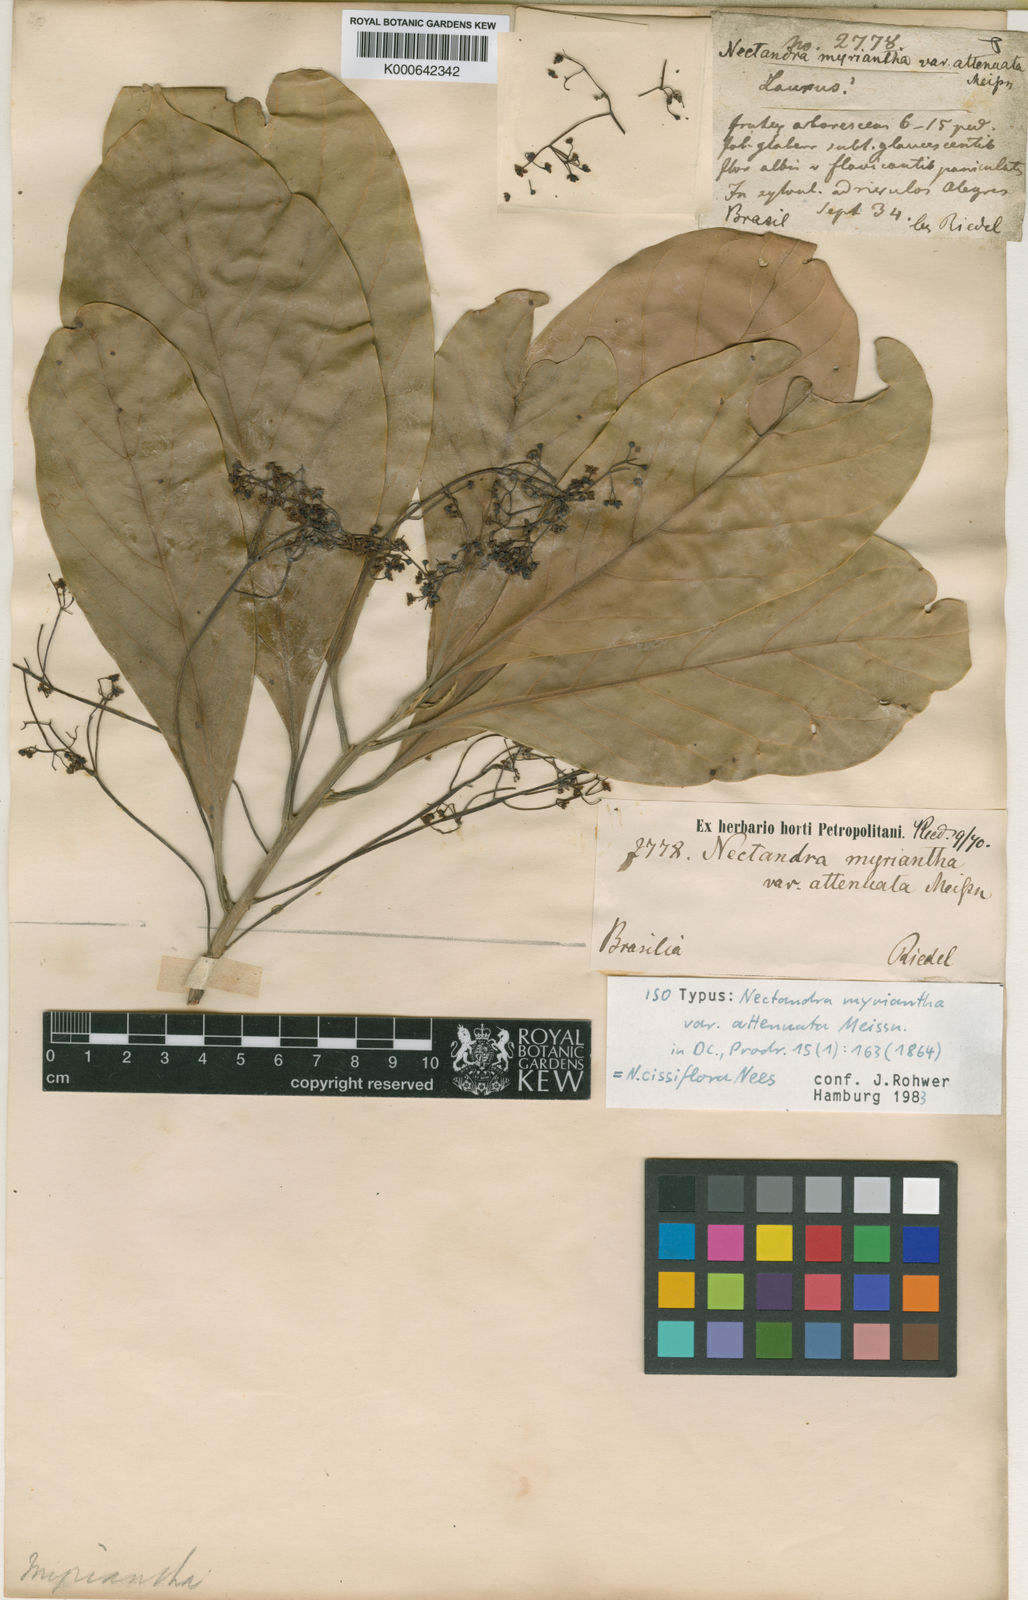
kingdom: Plantae
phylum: Tracheophyta
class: Magnoliopsida
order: Laurales
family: Lauraceae
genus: Nectandra
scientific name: Nectandra cissiflora
